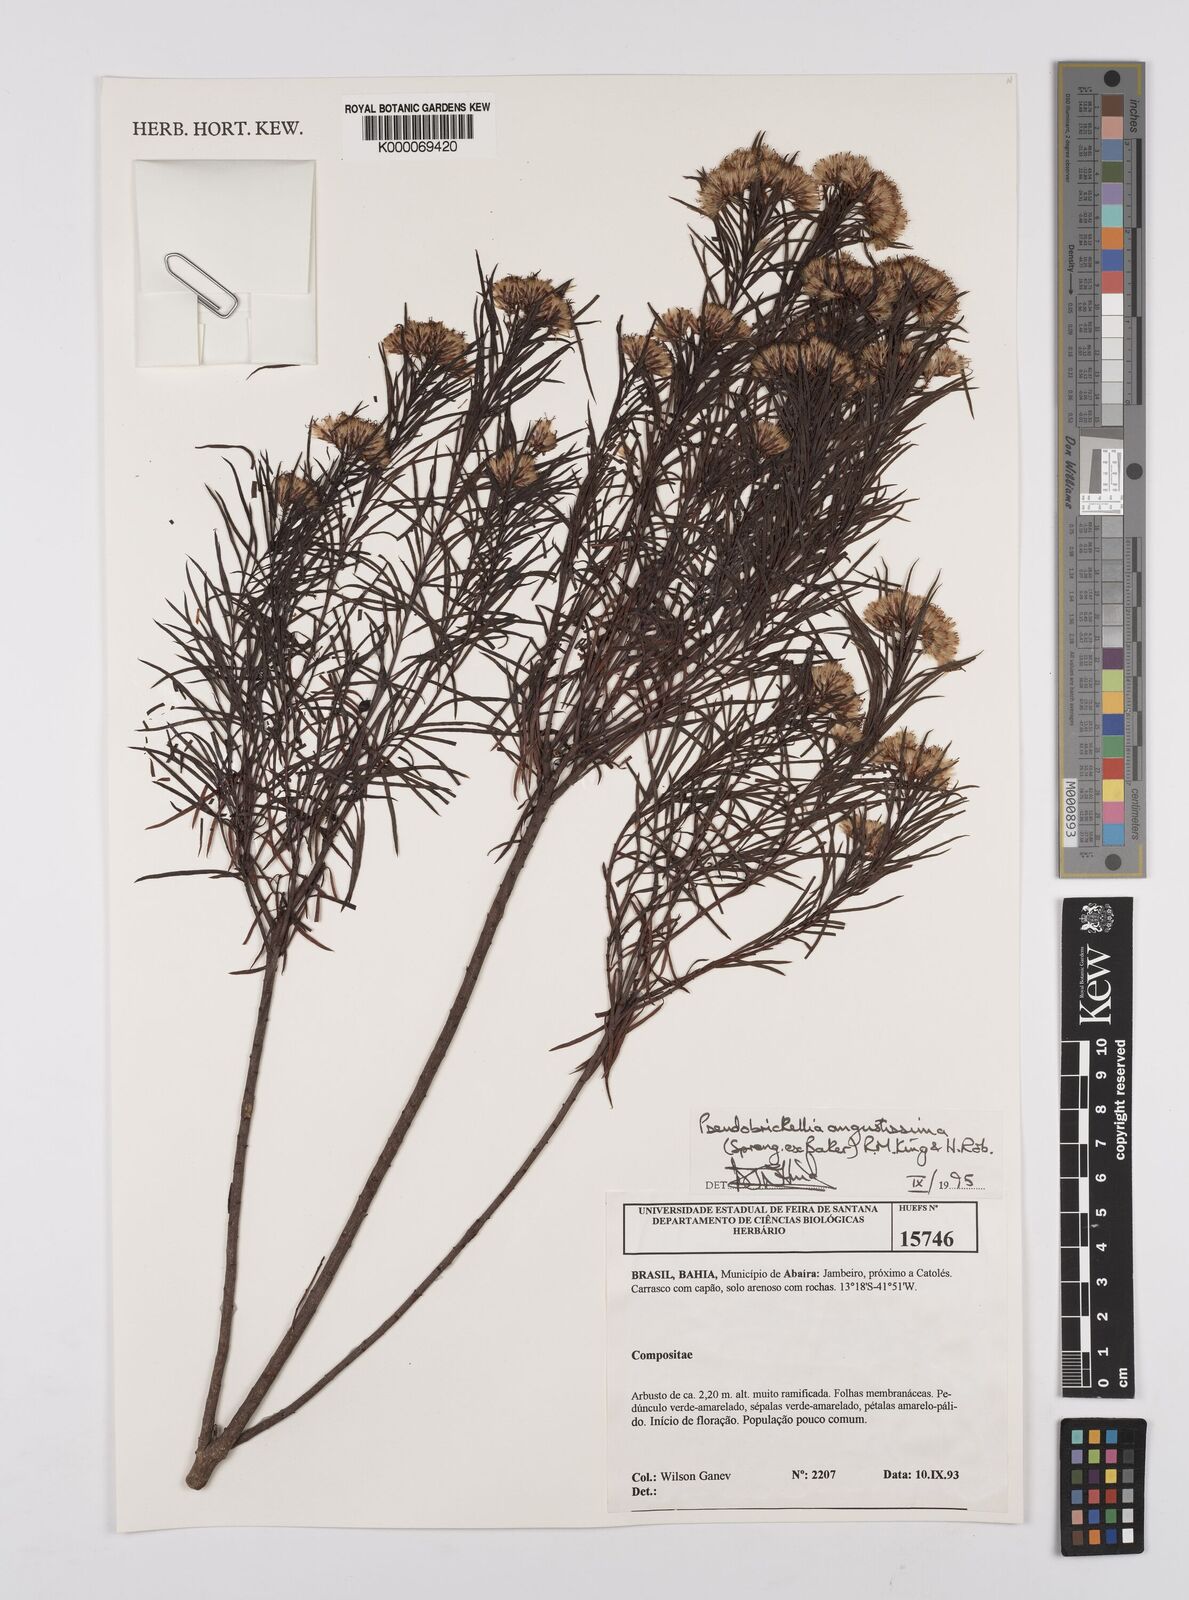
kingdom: Plantae
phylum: Tracheophyta
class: Magnoliopsida
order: Asterales
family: Asteraceae
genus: Pseudobrickellia
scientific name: Pseudobrickellia angustissima
